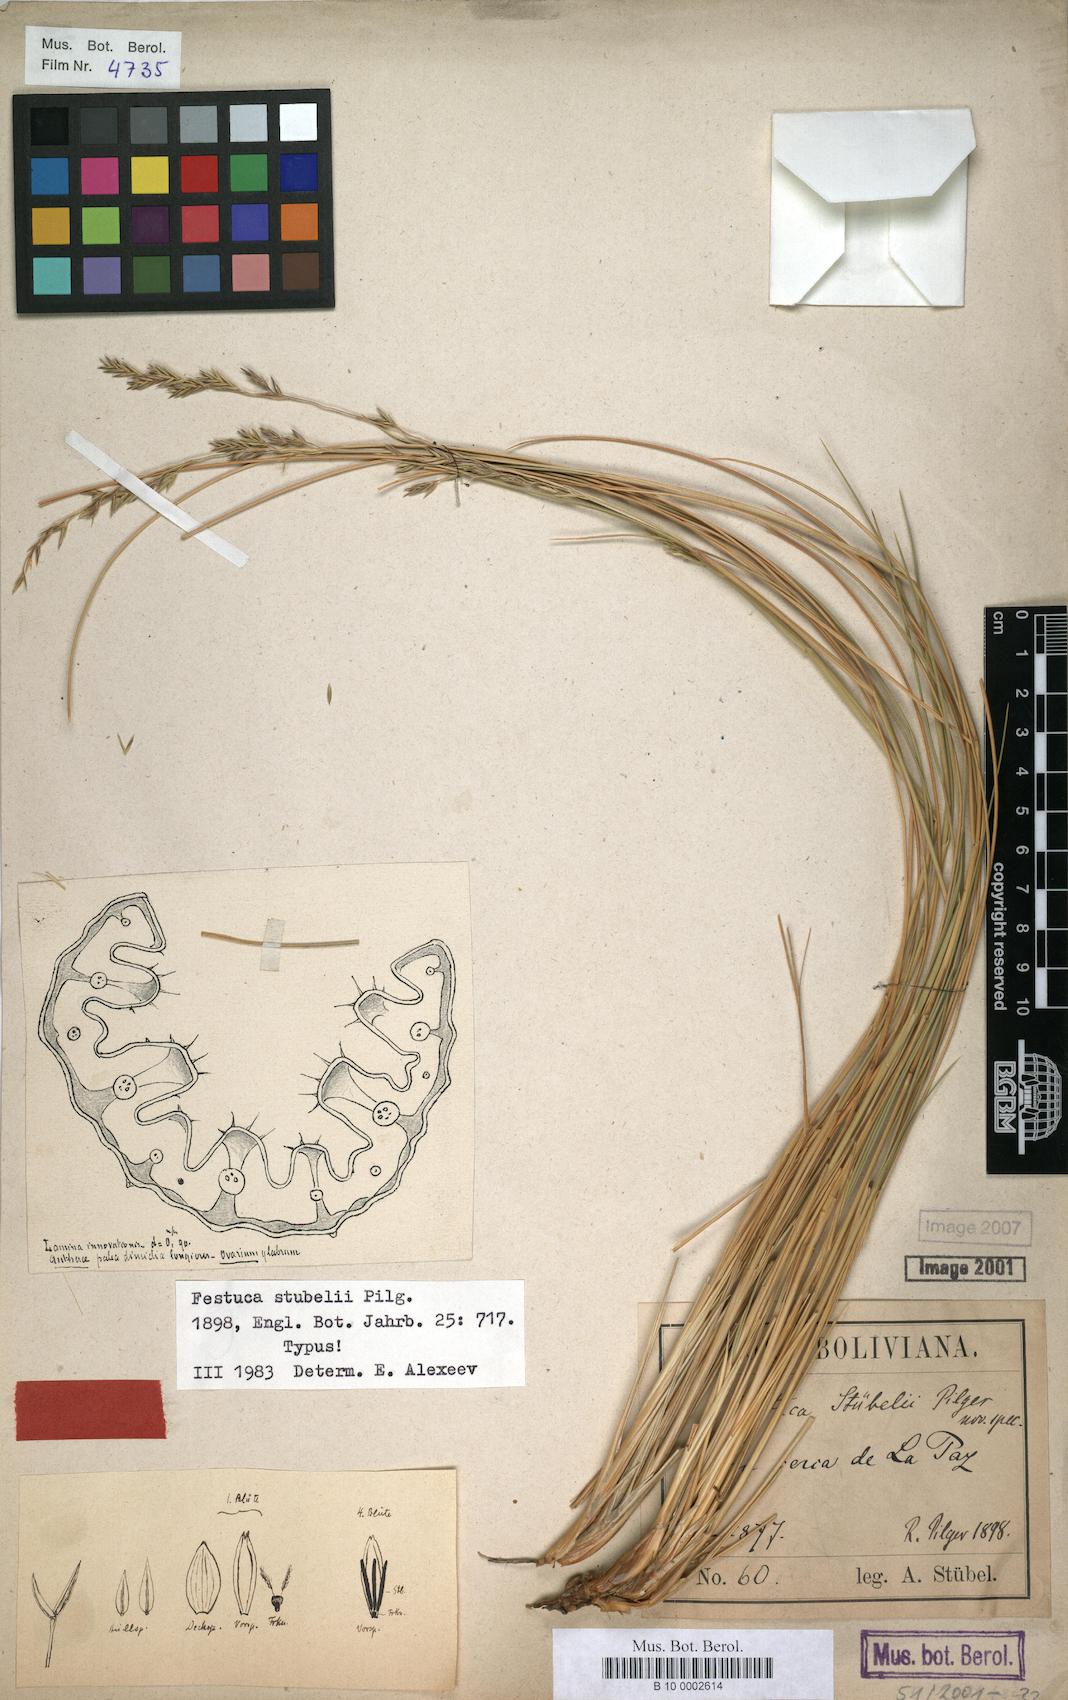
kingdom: Plantae
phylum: Tracheophyta
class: Liliopsida
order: Poales
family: Poaceae
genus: Festuca
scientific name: Festuca rigescens
